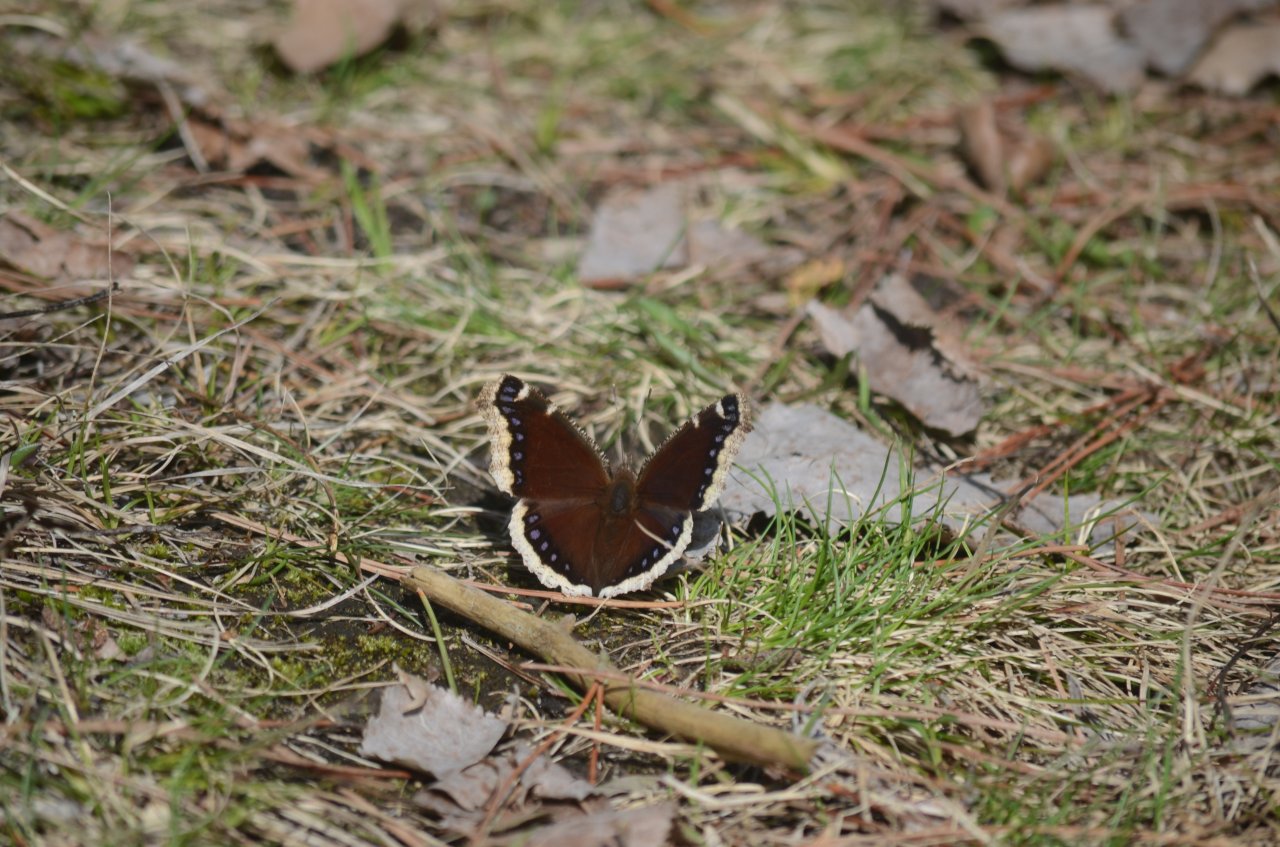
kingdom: Animalia
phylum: Arthropoda
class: Insecta
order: Lepidoptera
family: Nymphalidae
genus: Nymphalis
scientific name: Nymphalis antiopa
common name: Mourning Cloak
